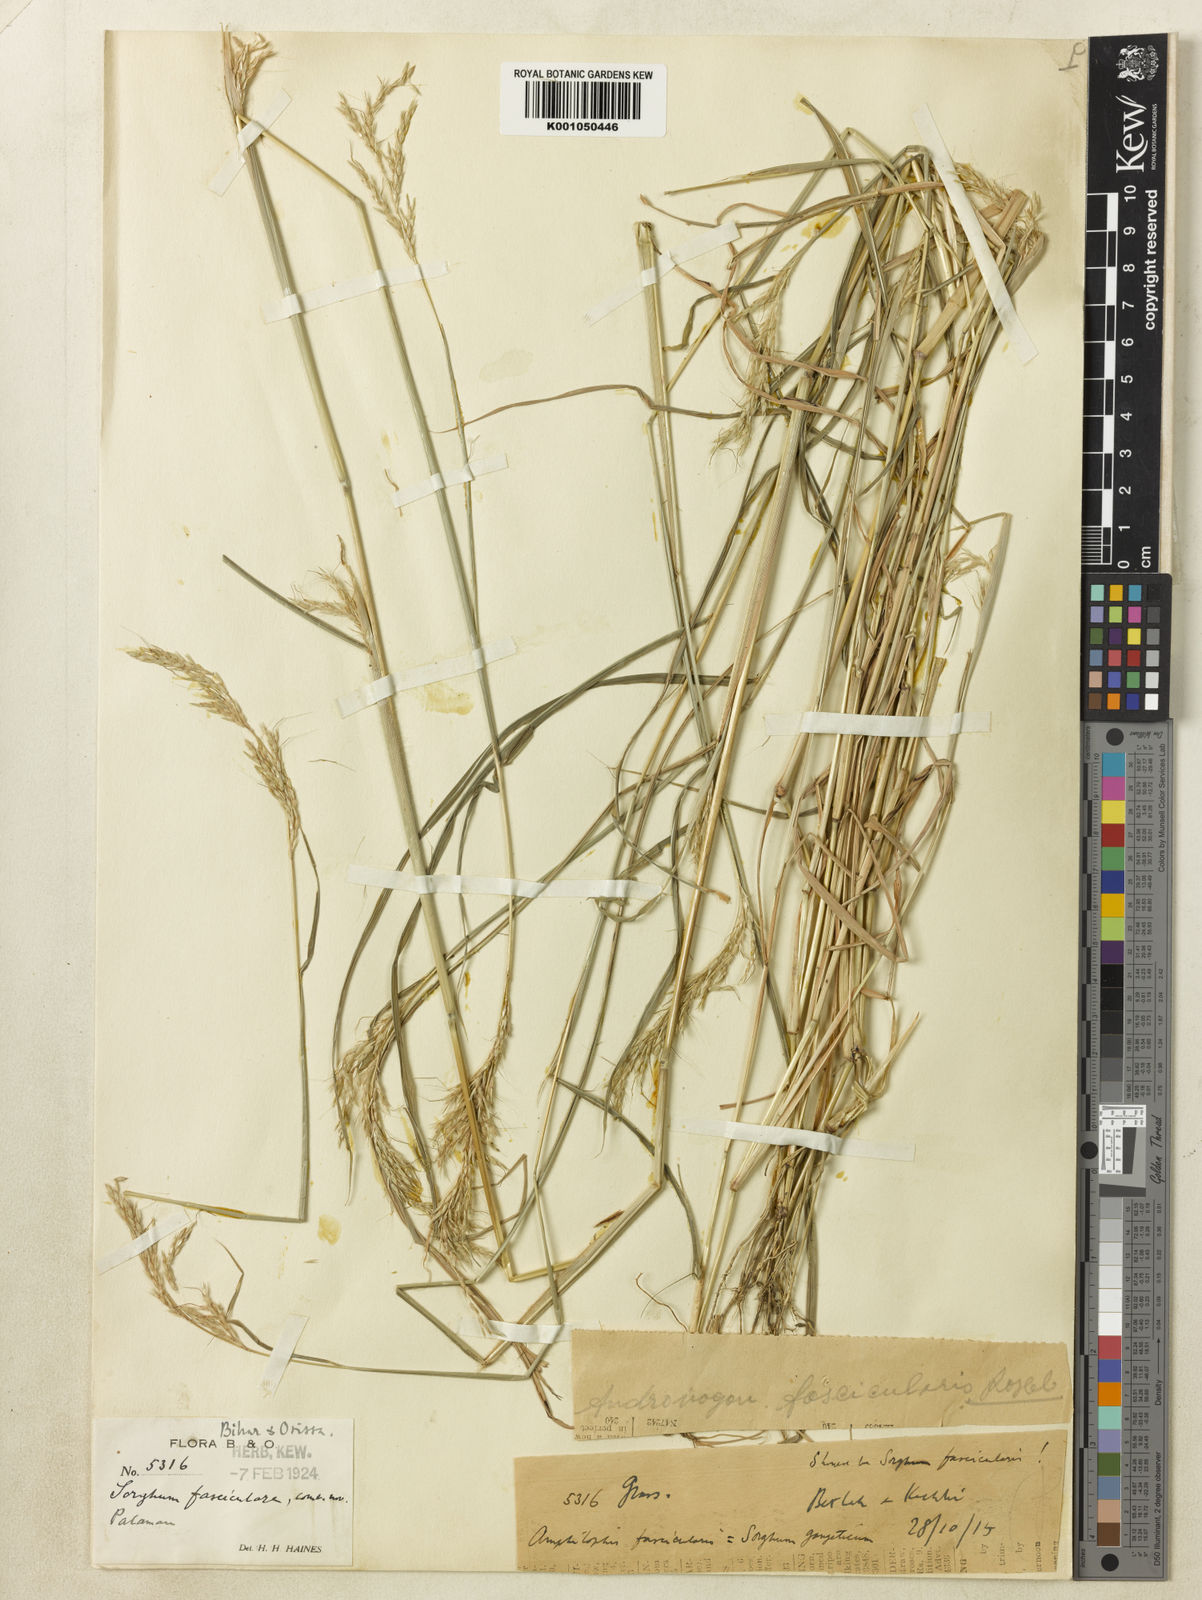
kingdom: Plantae
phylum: Tracheophyta
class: Liliopsida
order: Poales
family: Poaceae
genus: Pseudosorghum
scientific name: Pseudosorghum fasciculare
